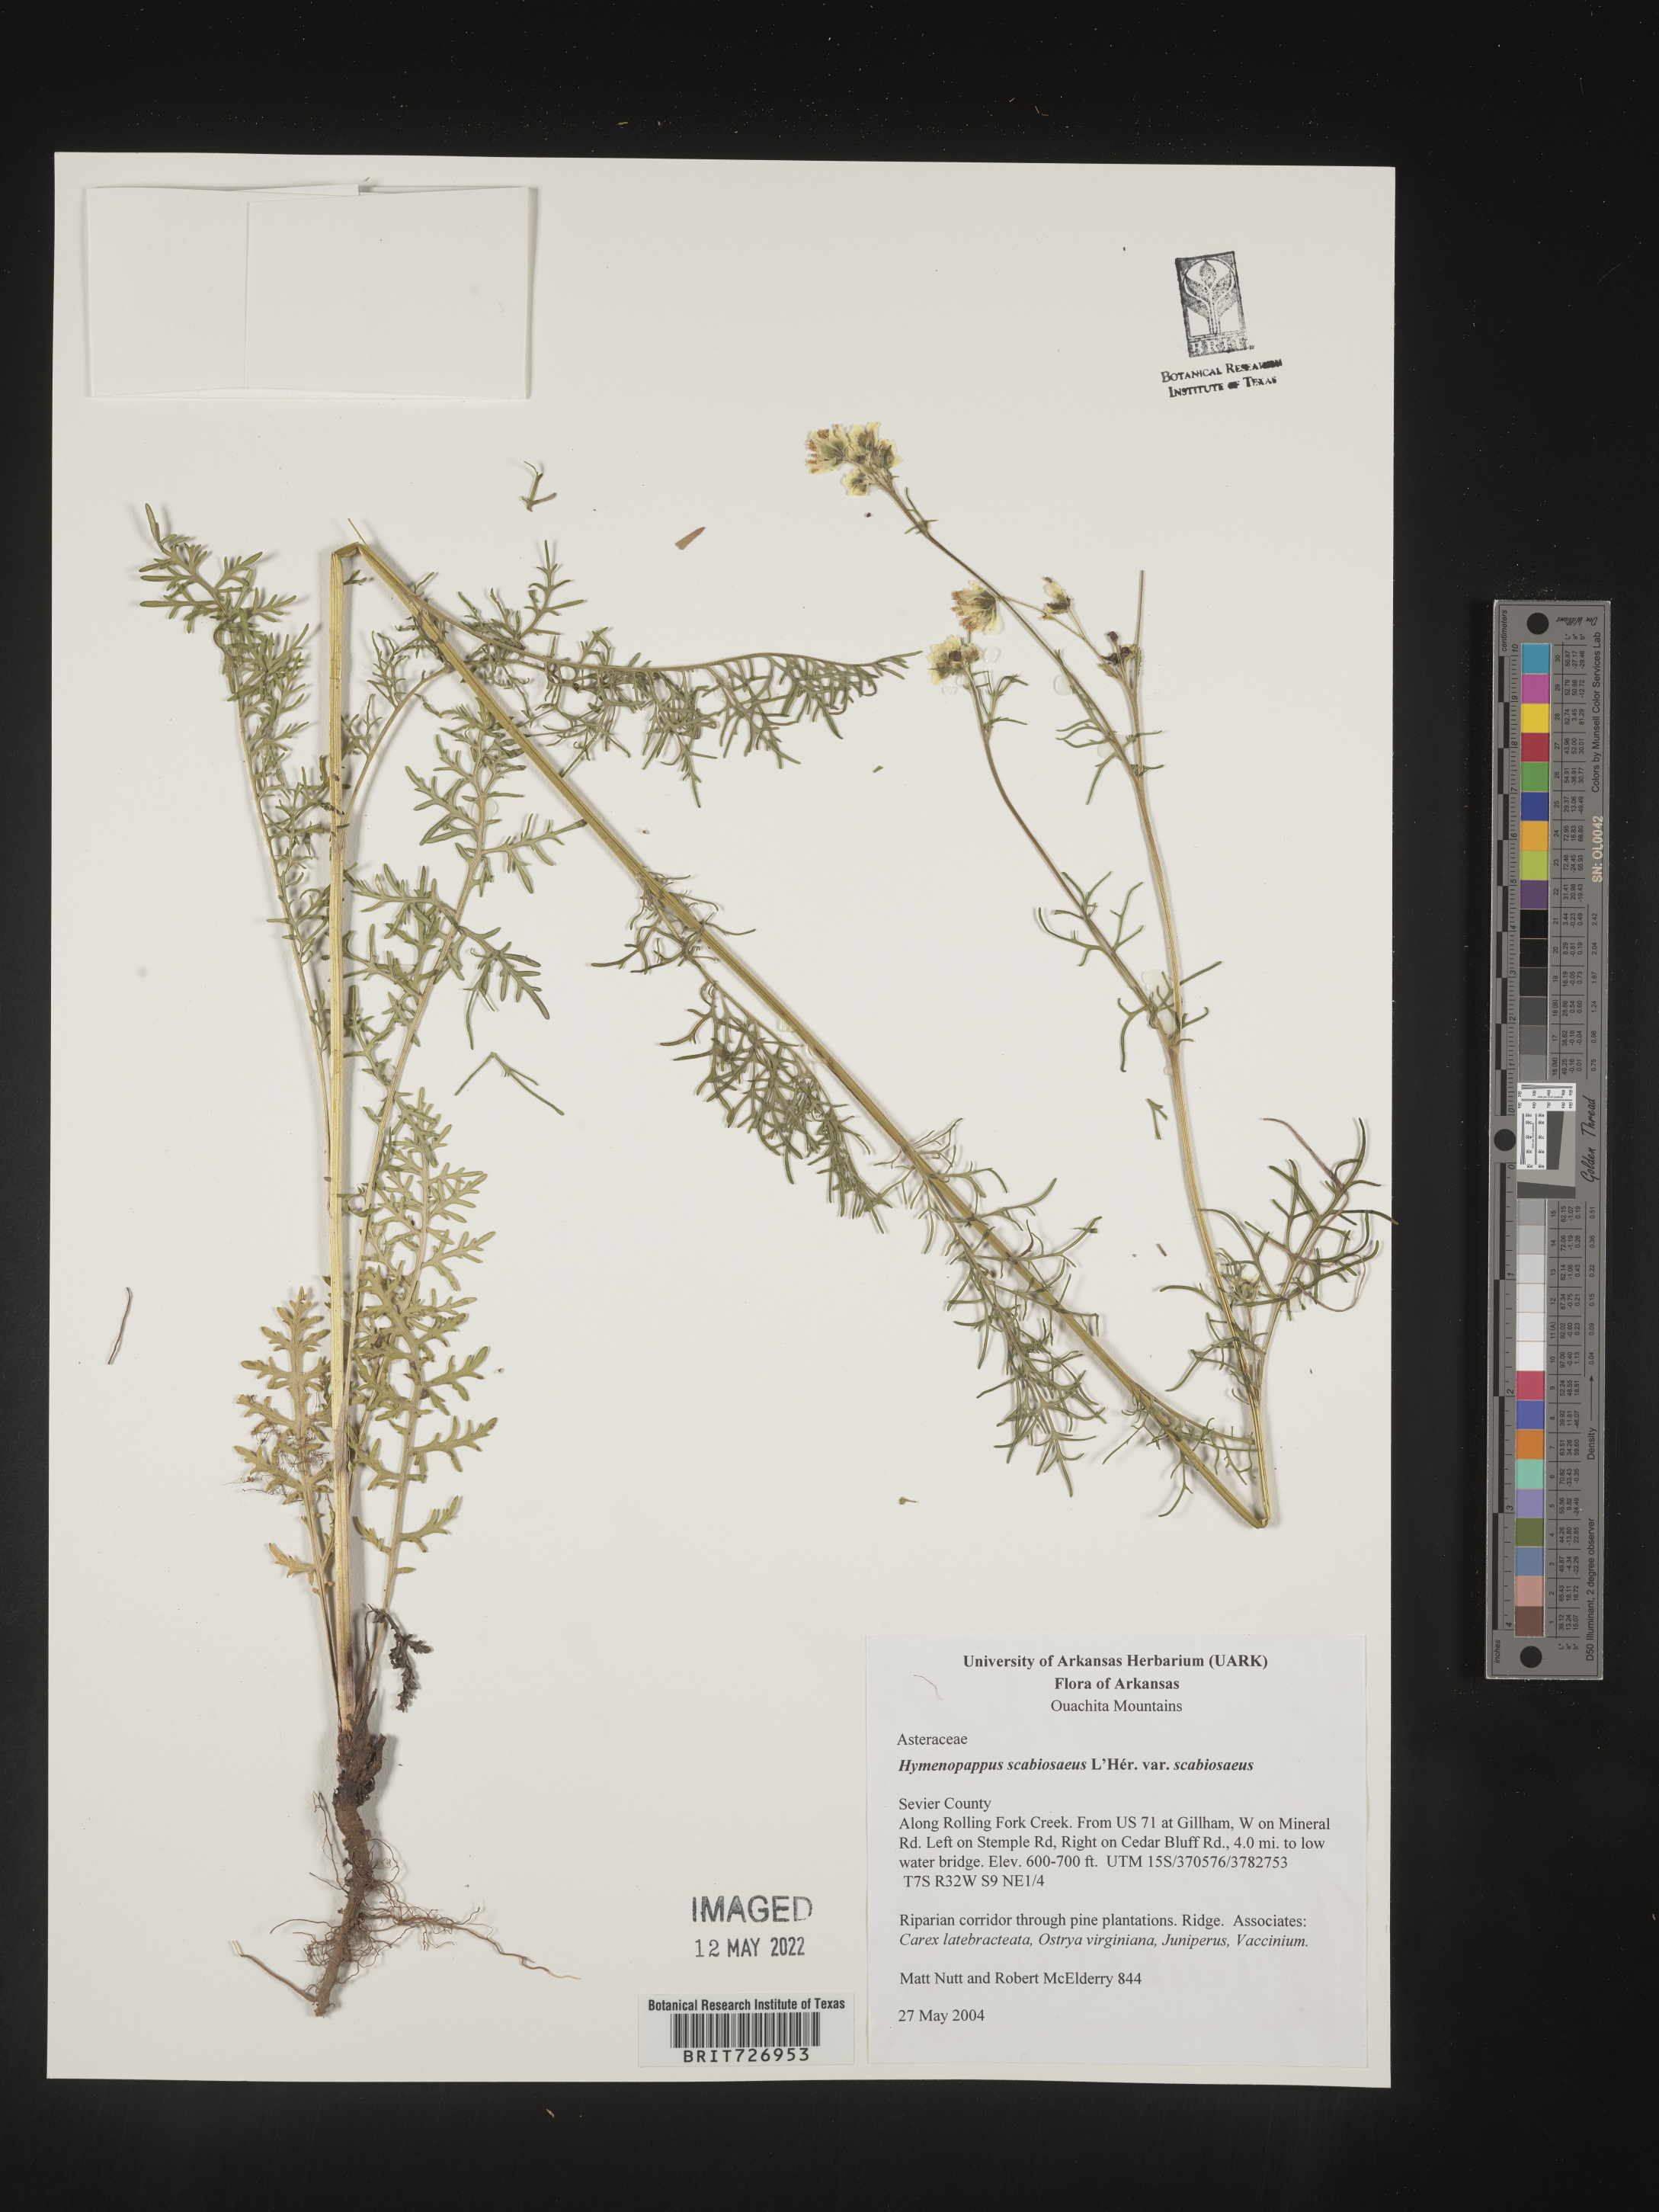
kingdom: Plantae
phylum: Tracheophyta
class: Magnoliopsida
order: Asterales
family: Asteraceae
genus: Hymenopappus
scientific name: Hymenopappus scabiosaeus
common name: Carolina woollywhite
